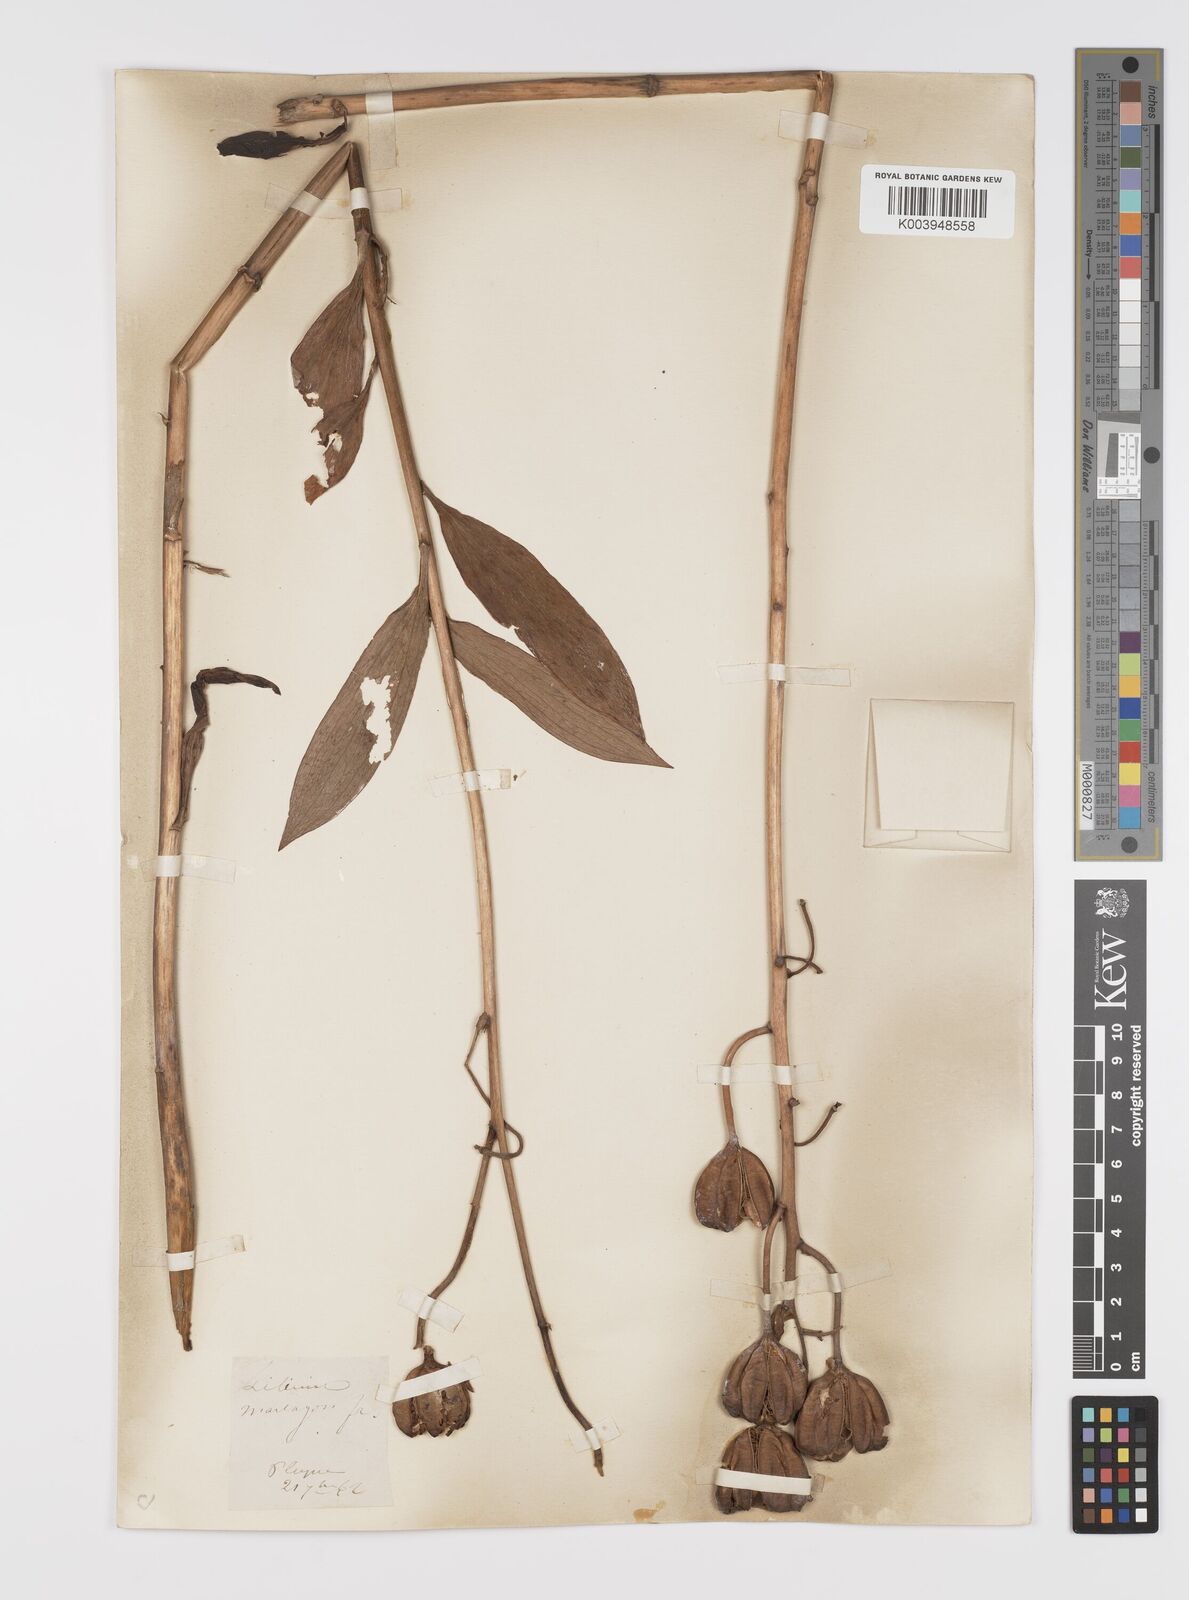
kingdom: Plantae
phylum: Tracheophyta
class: Liliopsida
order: Liliales
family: Liliaceae
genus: Lilium
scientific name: Lilium martagon
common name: Martagon lily
